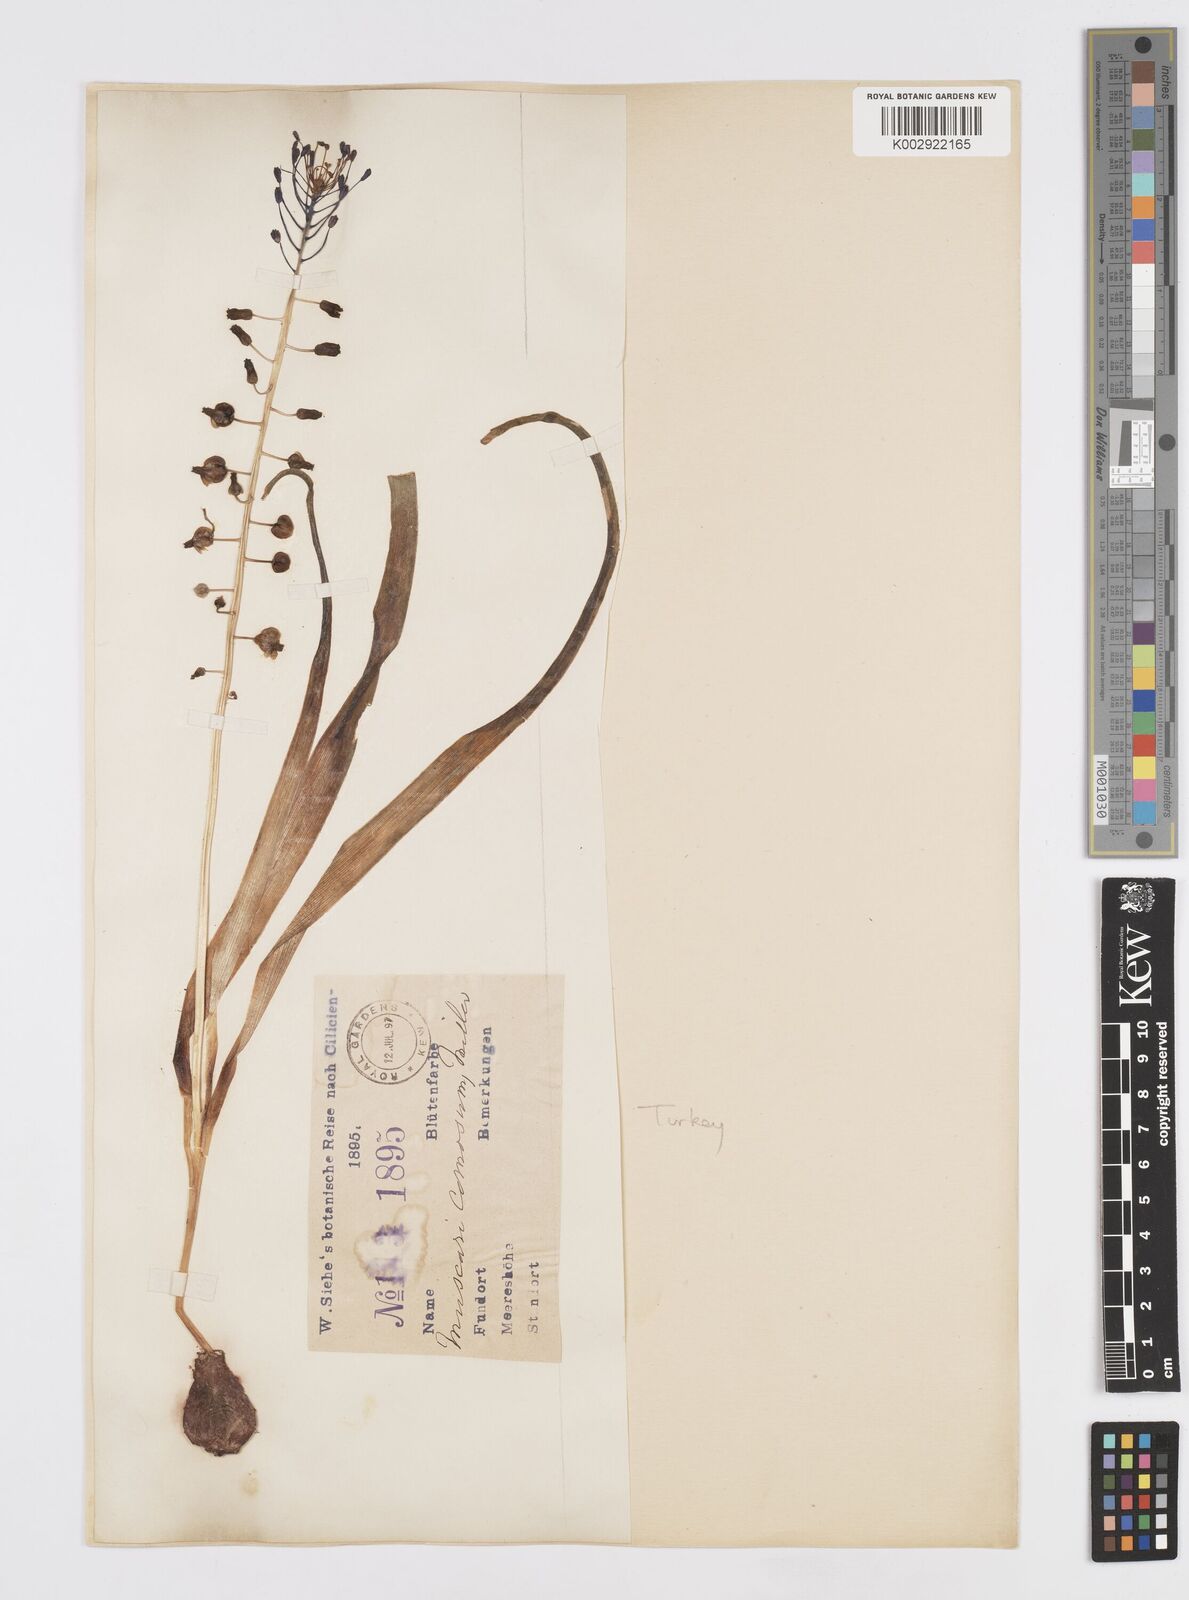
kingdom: Plantae
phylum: Tracheophyta
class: Liliopsida
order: Asparagales
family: Asparagaceae
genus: Muscari
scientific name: Muscari comosum
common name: Tassel hyacinth
